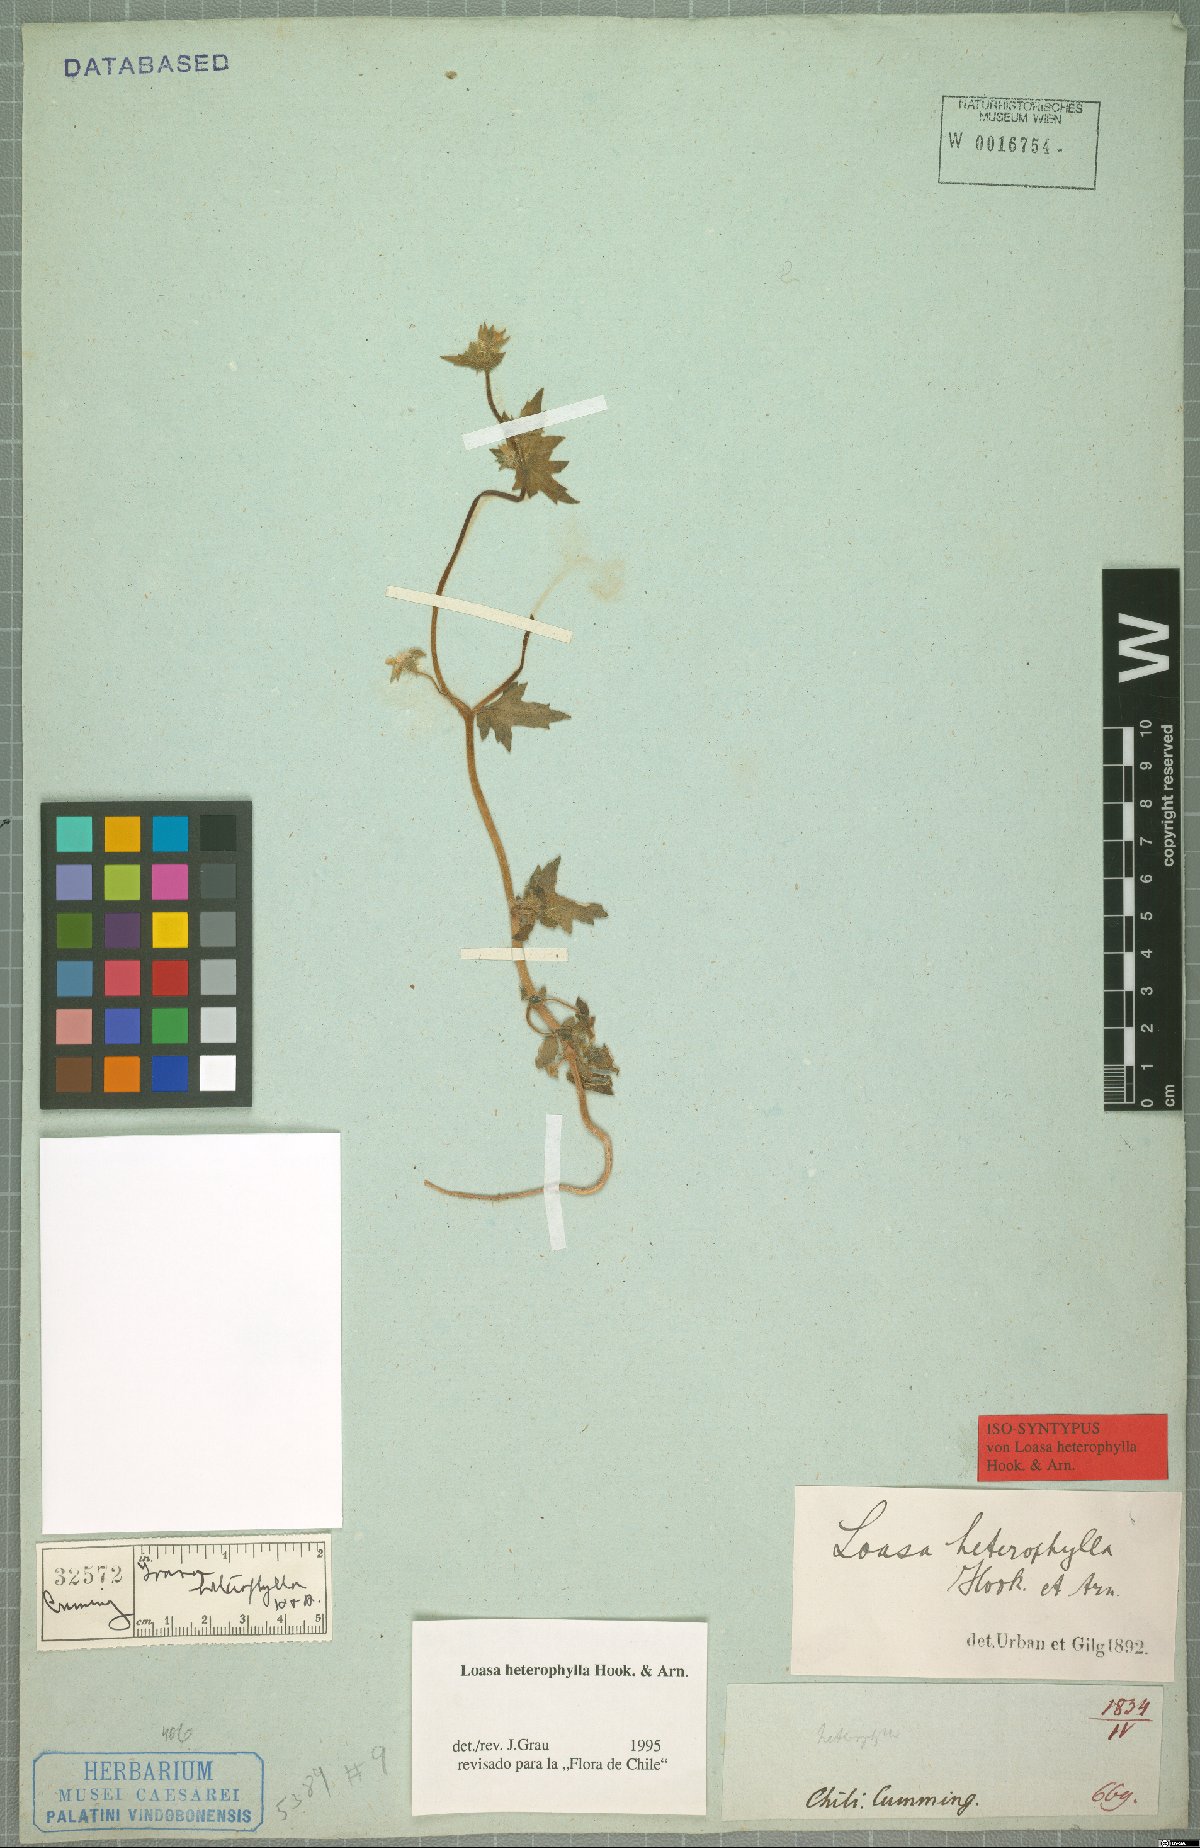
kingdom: Plantae
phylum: Tracheophyta
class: Magnoliopsida
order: Cornales
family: Loasaceae
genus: Loasa
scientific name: Loasa heterophylla
